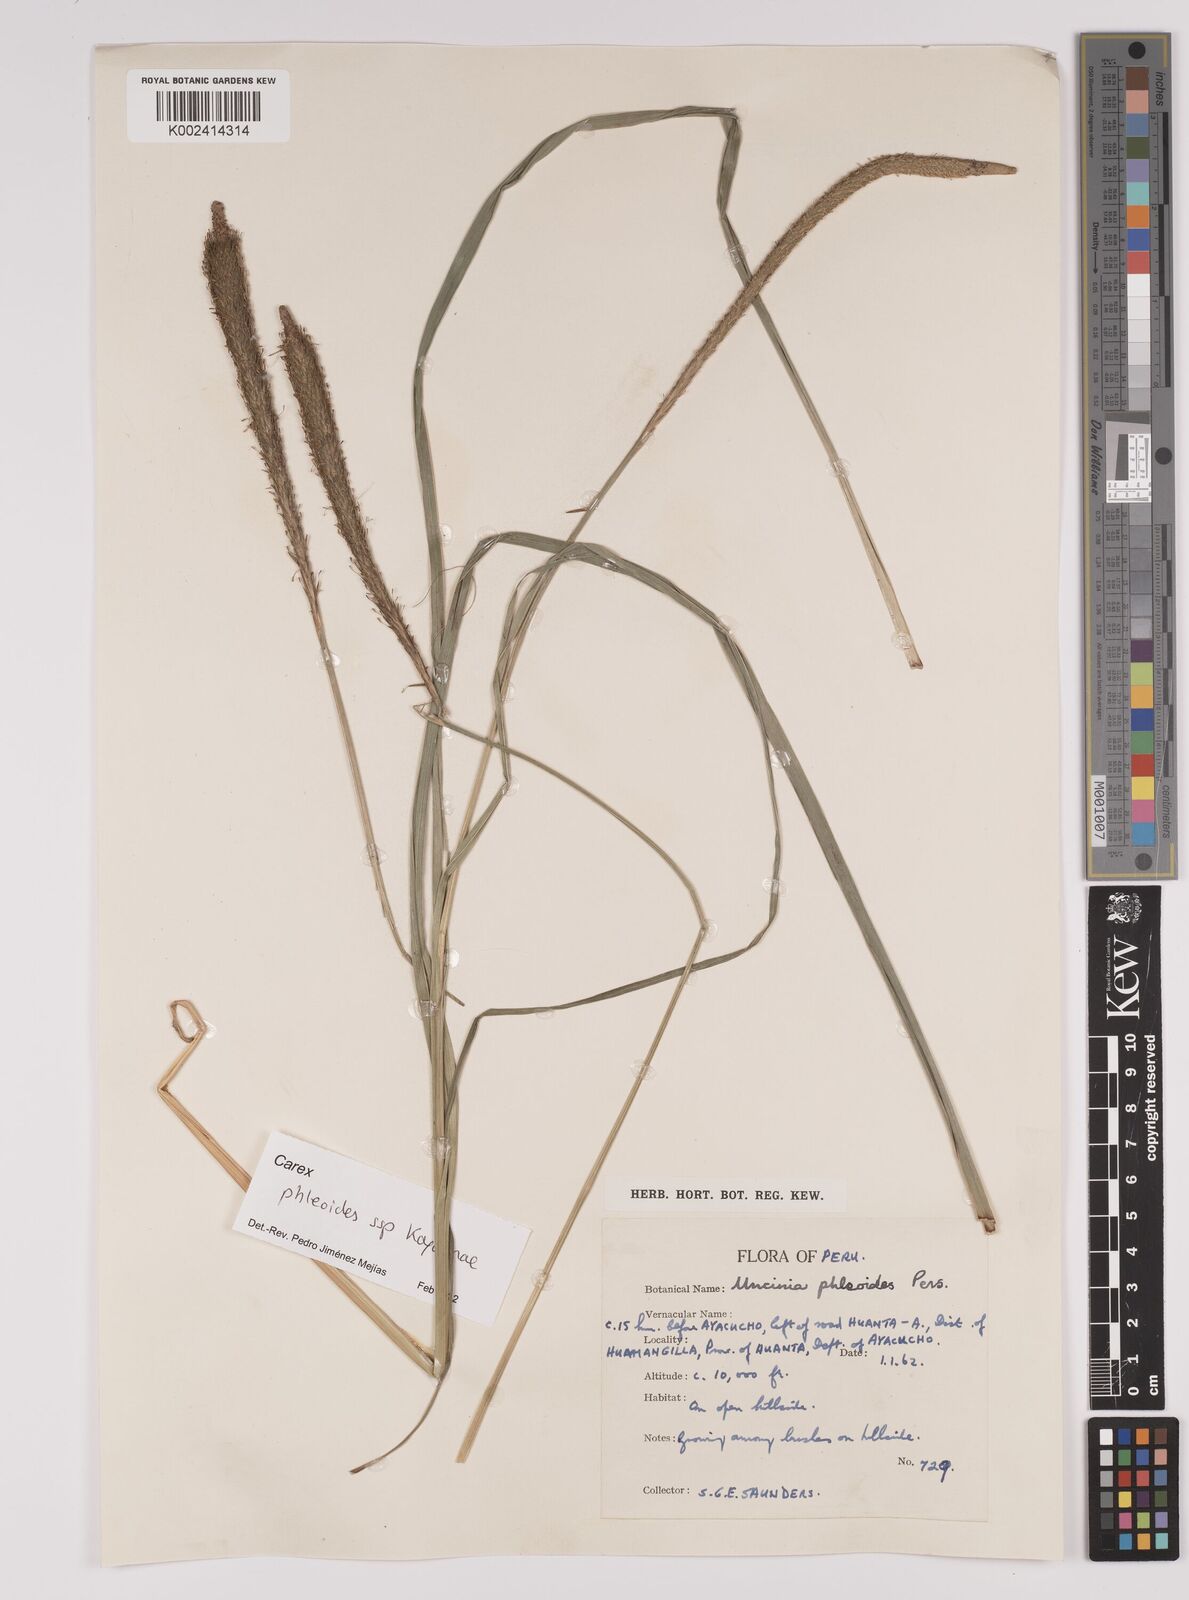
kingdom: Plantae
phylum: Tracheophyta
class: Liliopsida
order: Poales
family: Cyperaceae
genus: Carex
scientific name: Carex phleoides
